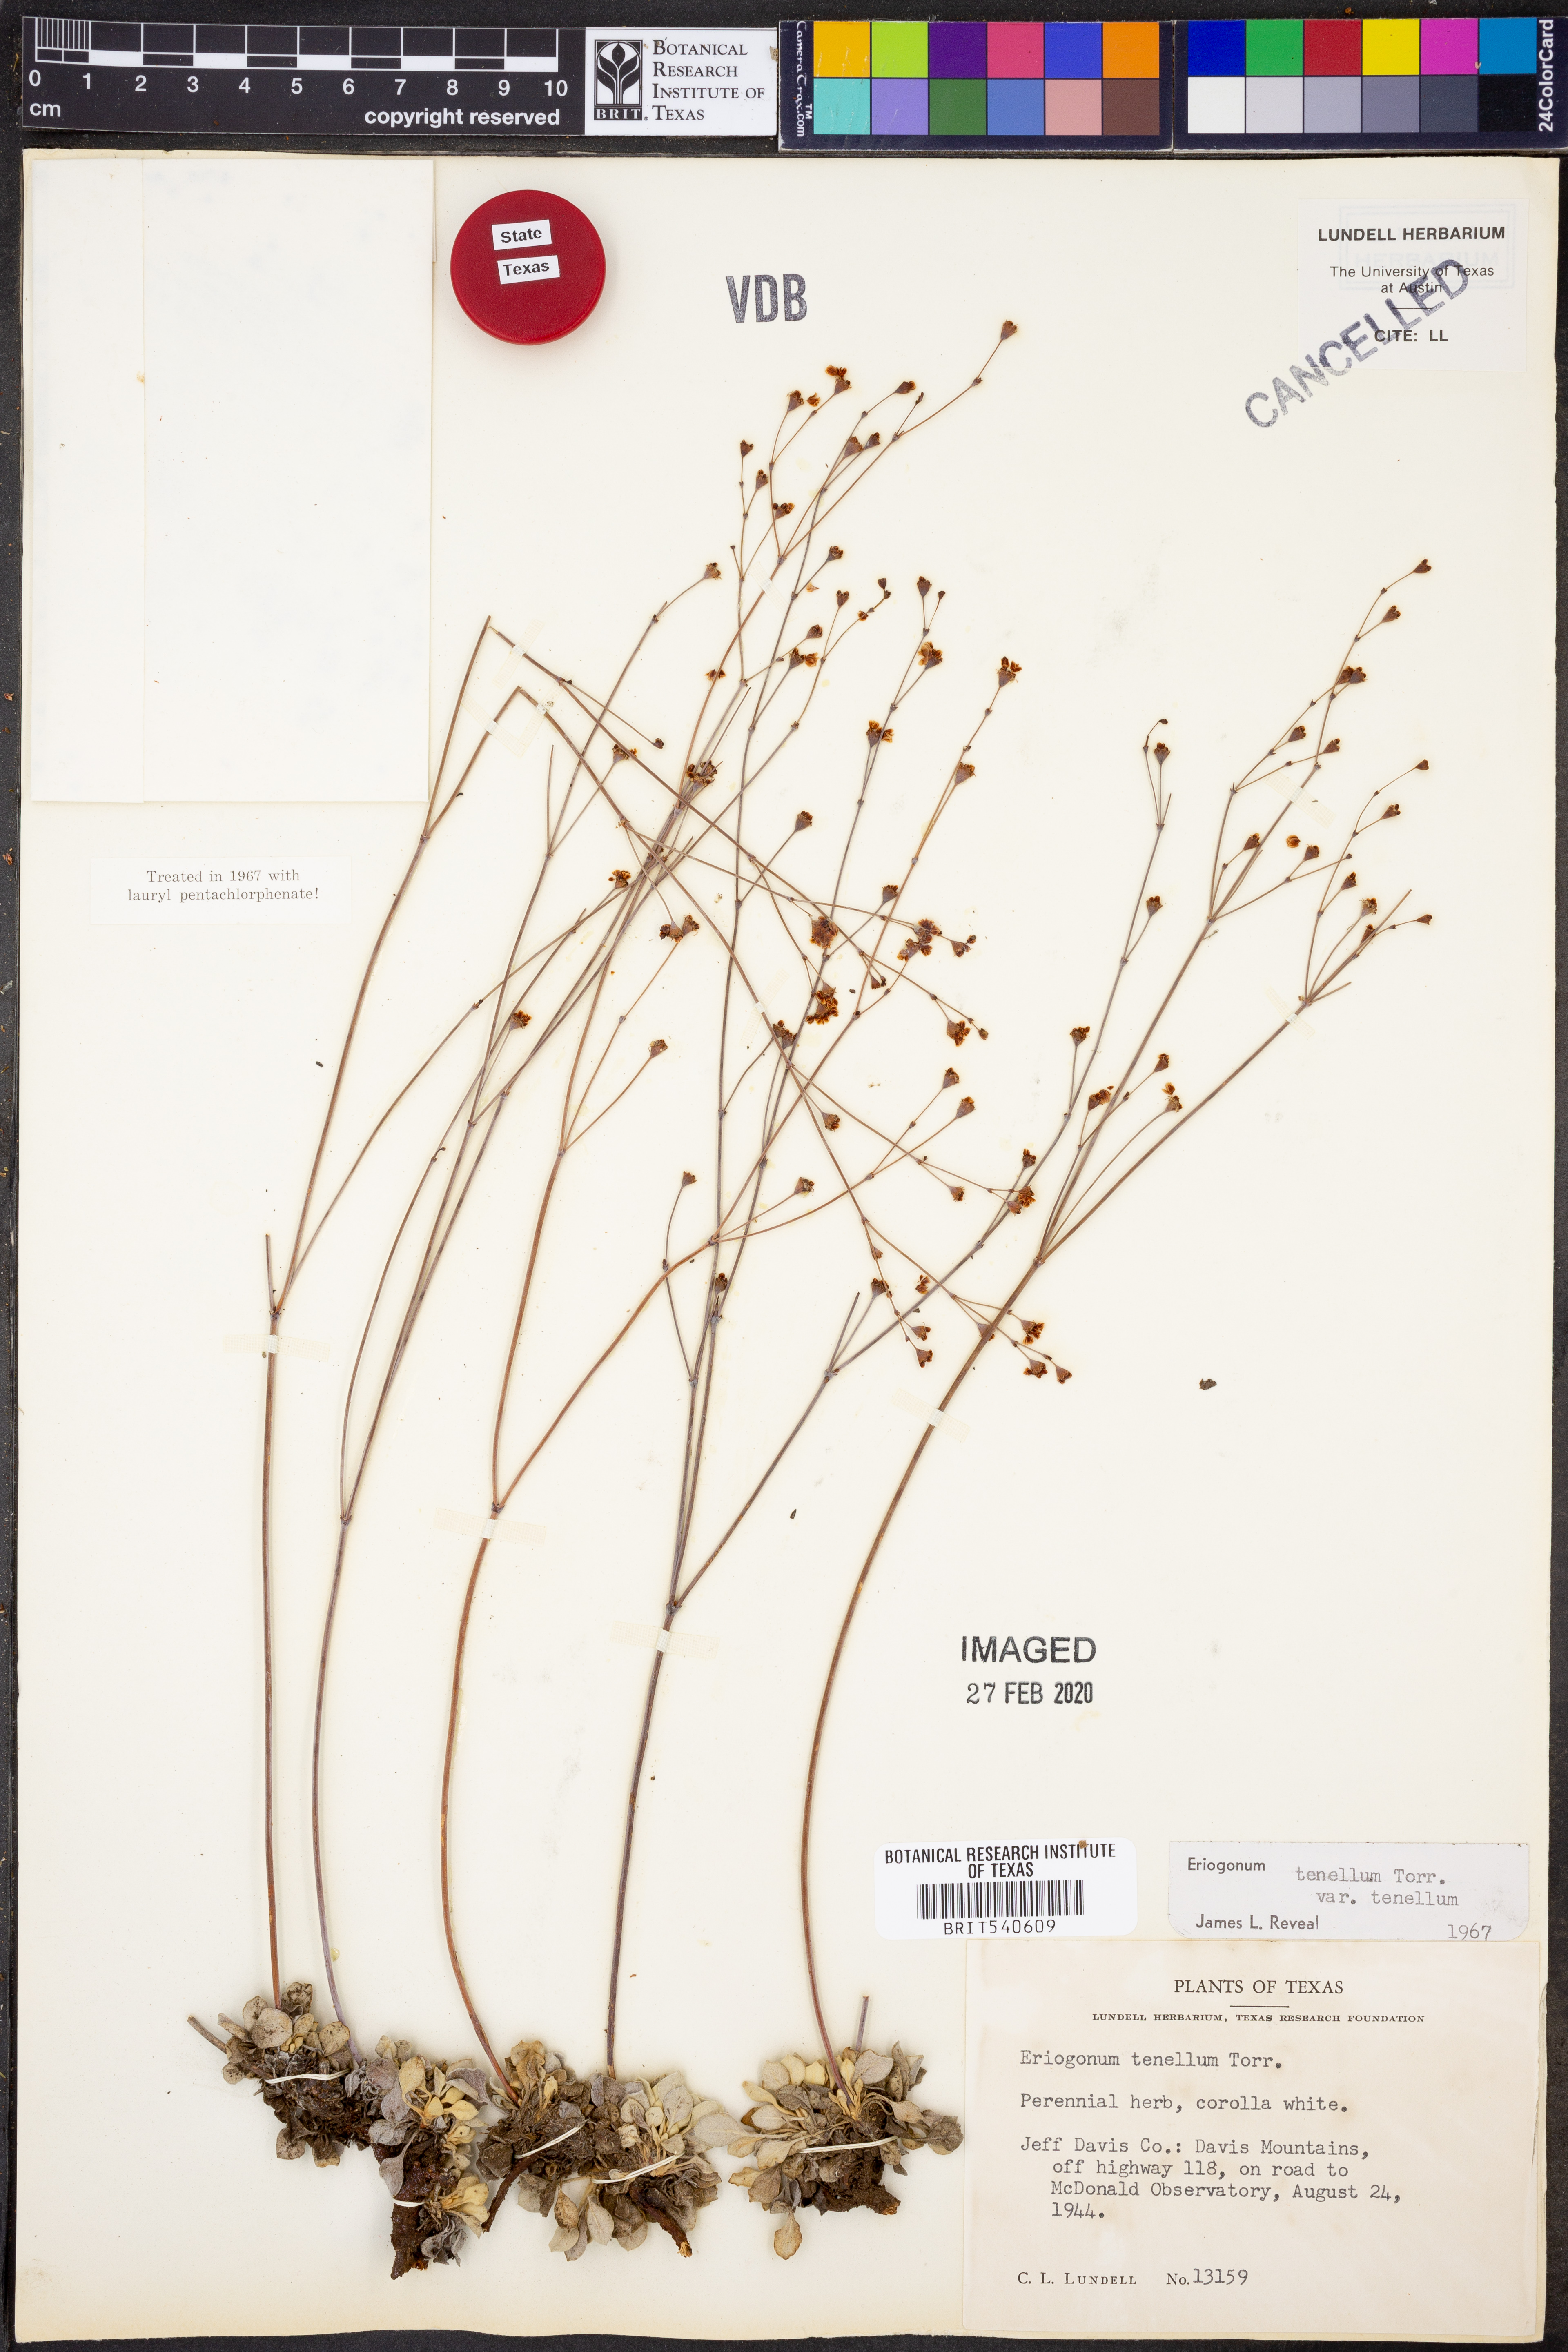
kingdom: Plantae
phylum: Tracheophyta
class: Magnoliopsida
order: Caryophyllales
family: Polygonaceae
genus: Eriogonum
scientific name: Eriogonum tenellum
